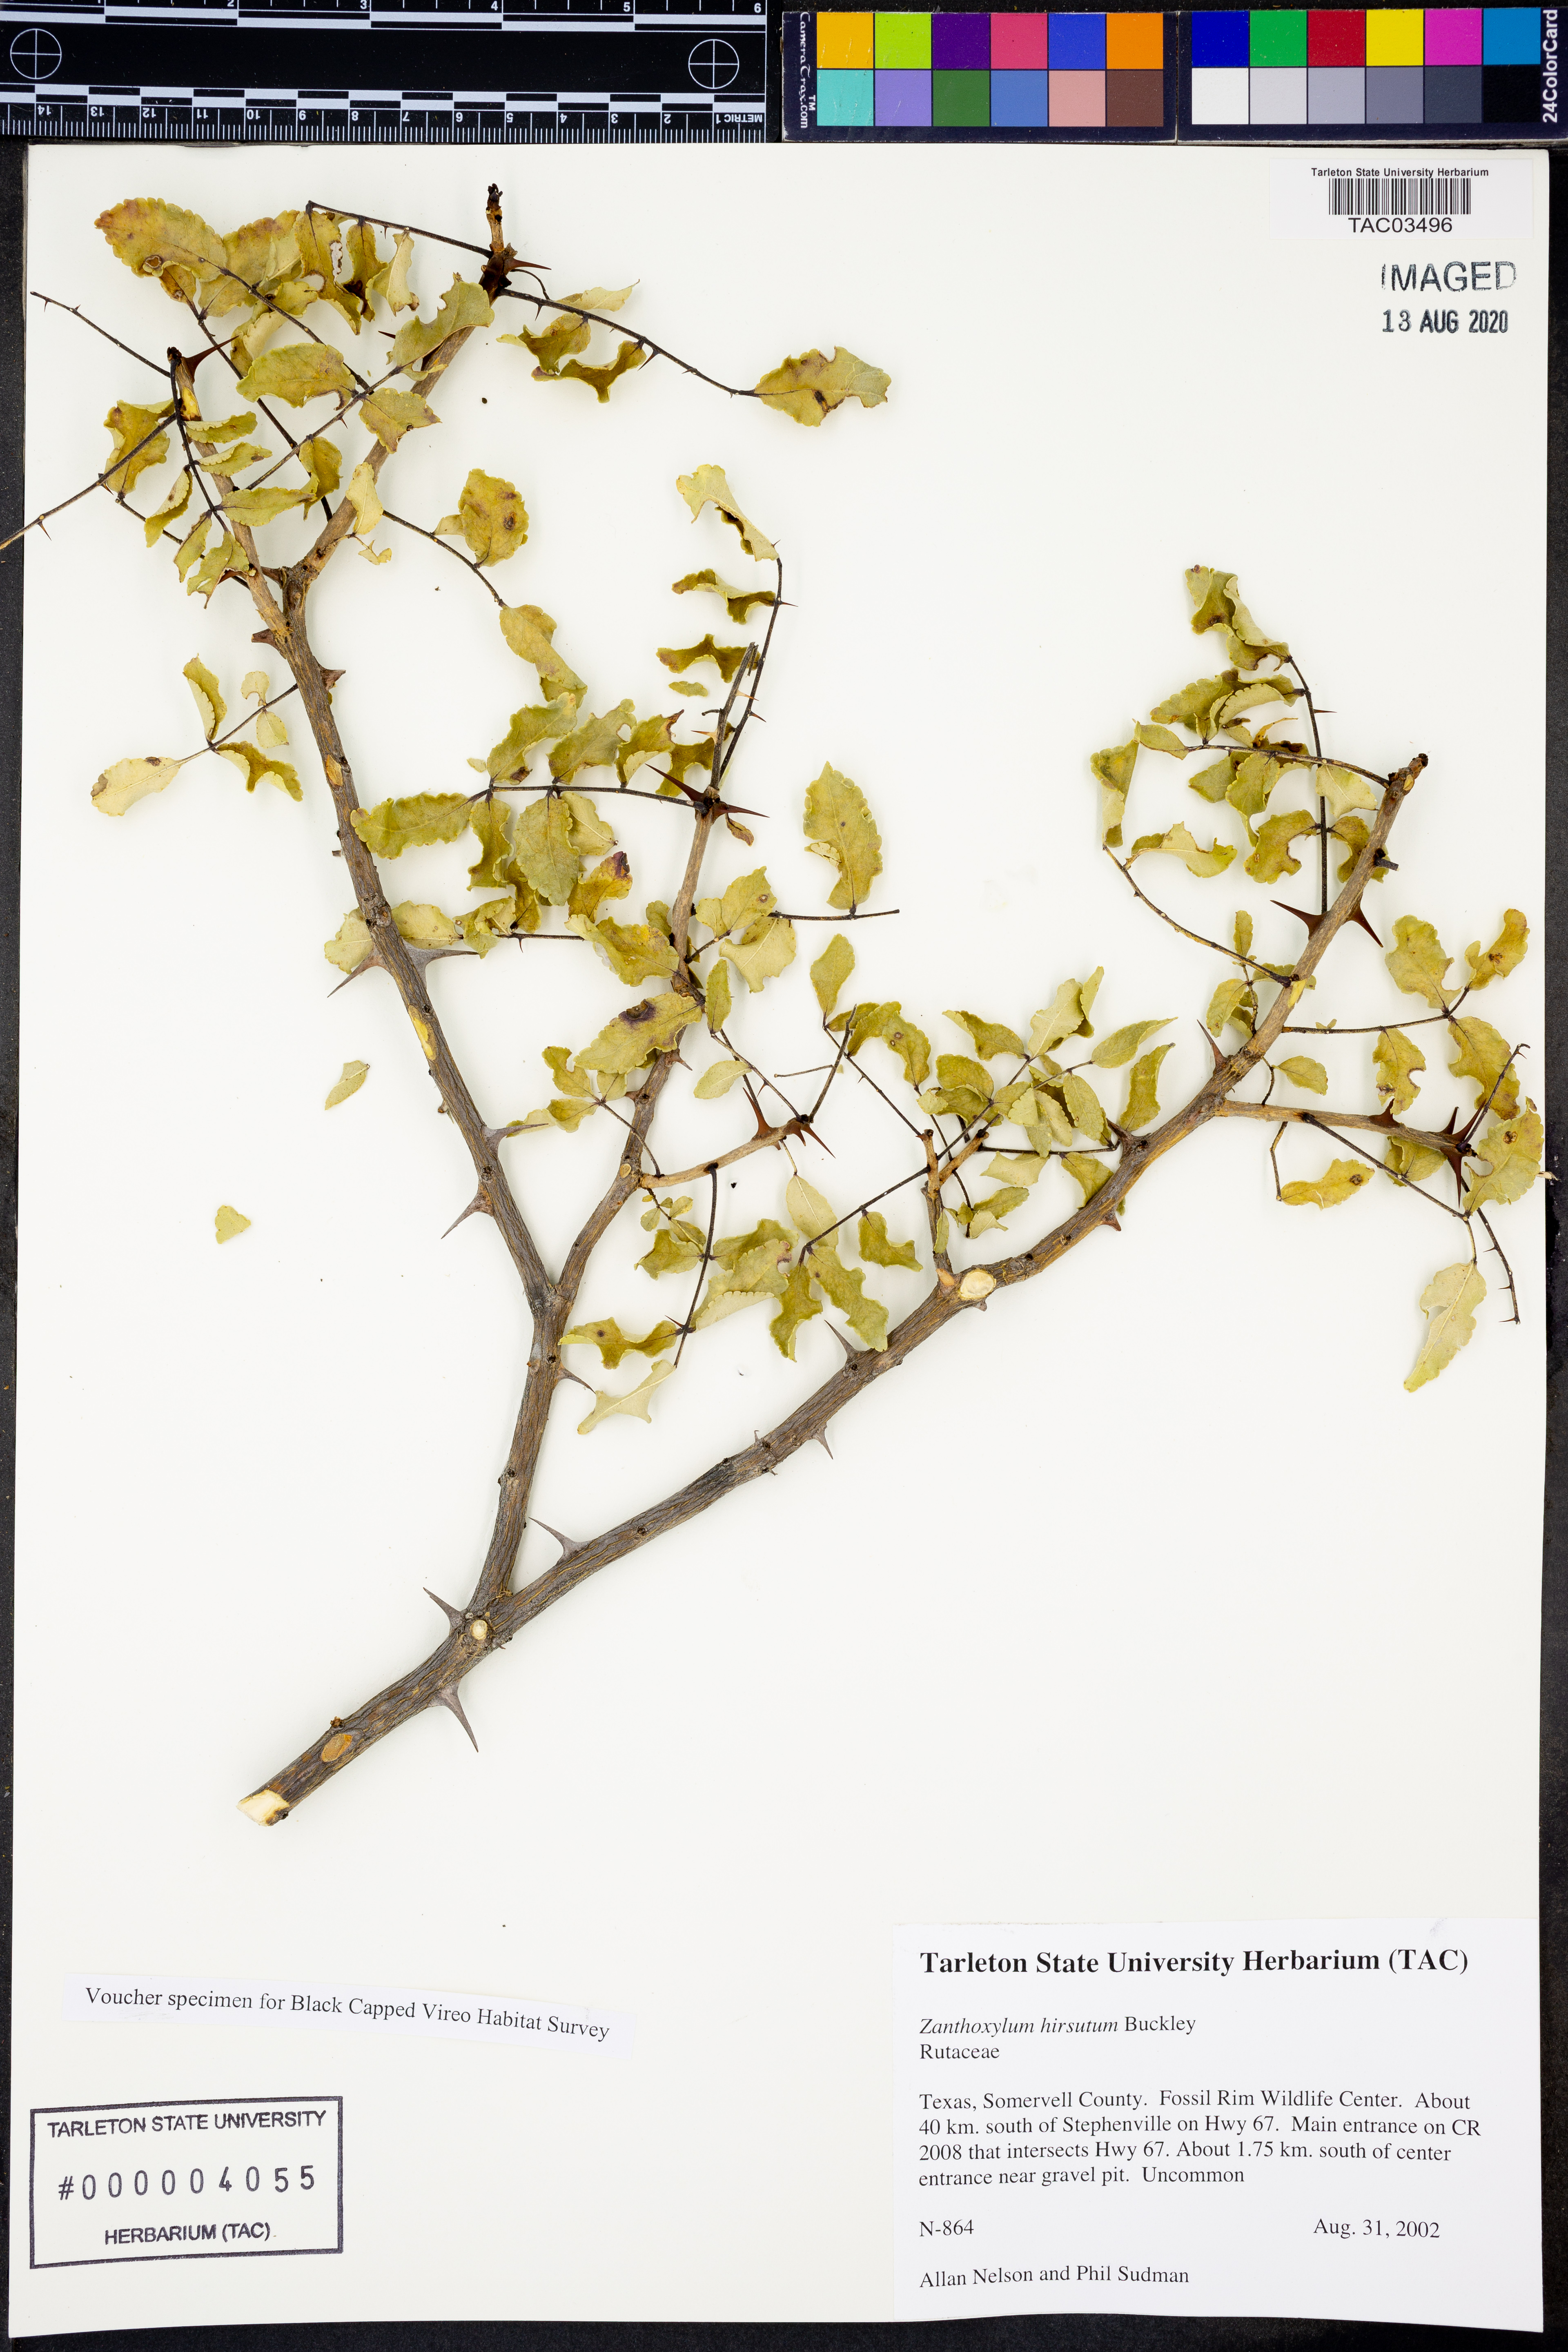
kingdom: Plantae
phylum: Tracheophyta
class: Magnoliopsida
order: Sapindales
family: Rutaceae
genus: Zanthoxylum
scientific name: Zanthoxylum clava-herculis
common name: Hercules'-club
